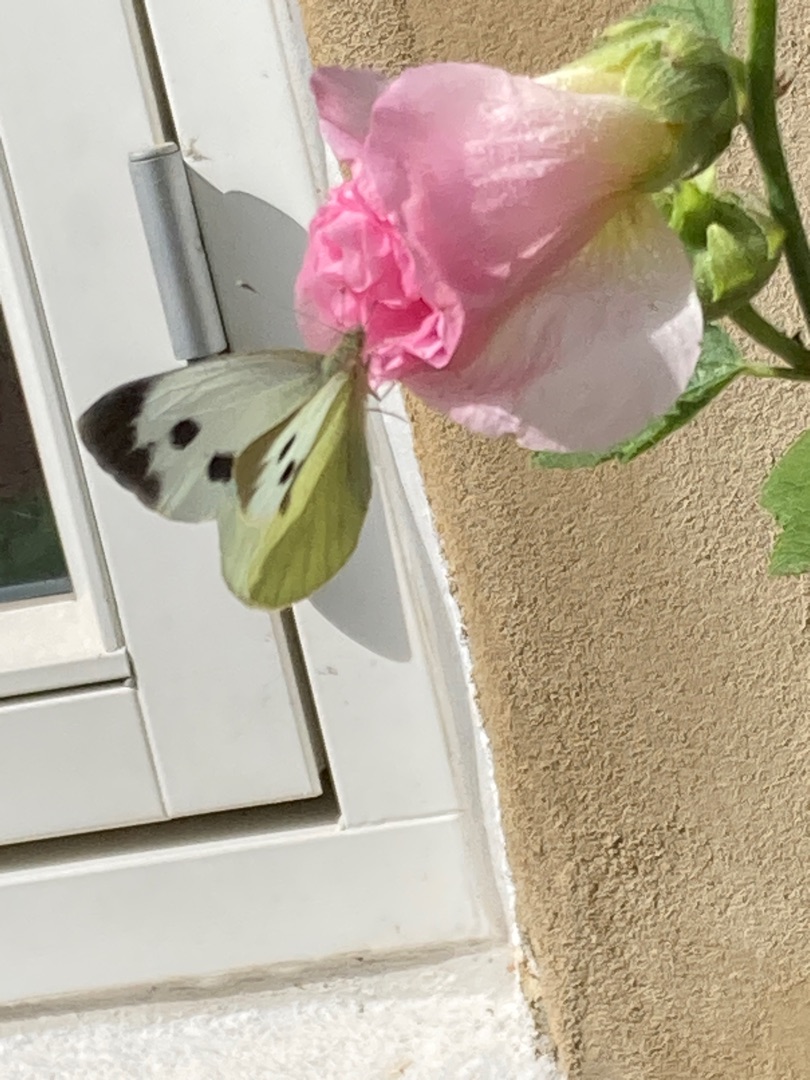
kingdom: Animalia
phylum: Arthropoda
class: Insecta
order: Lepidoptera
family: Pieridae
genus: Pieris
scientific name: Pieris brassicae
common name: Stor kålsommerfugl
